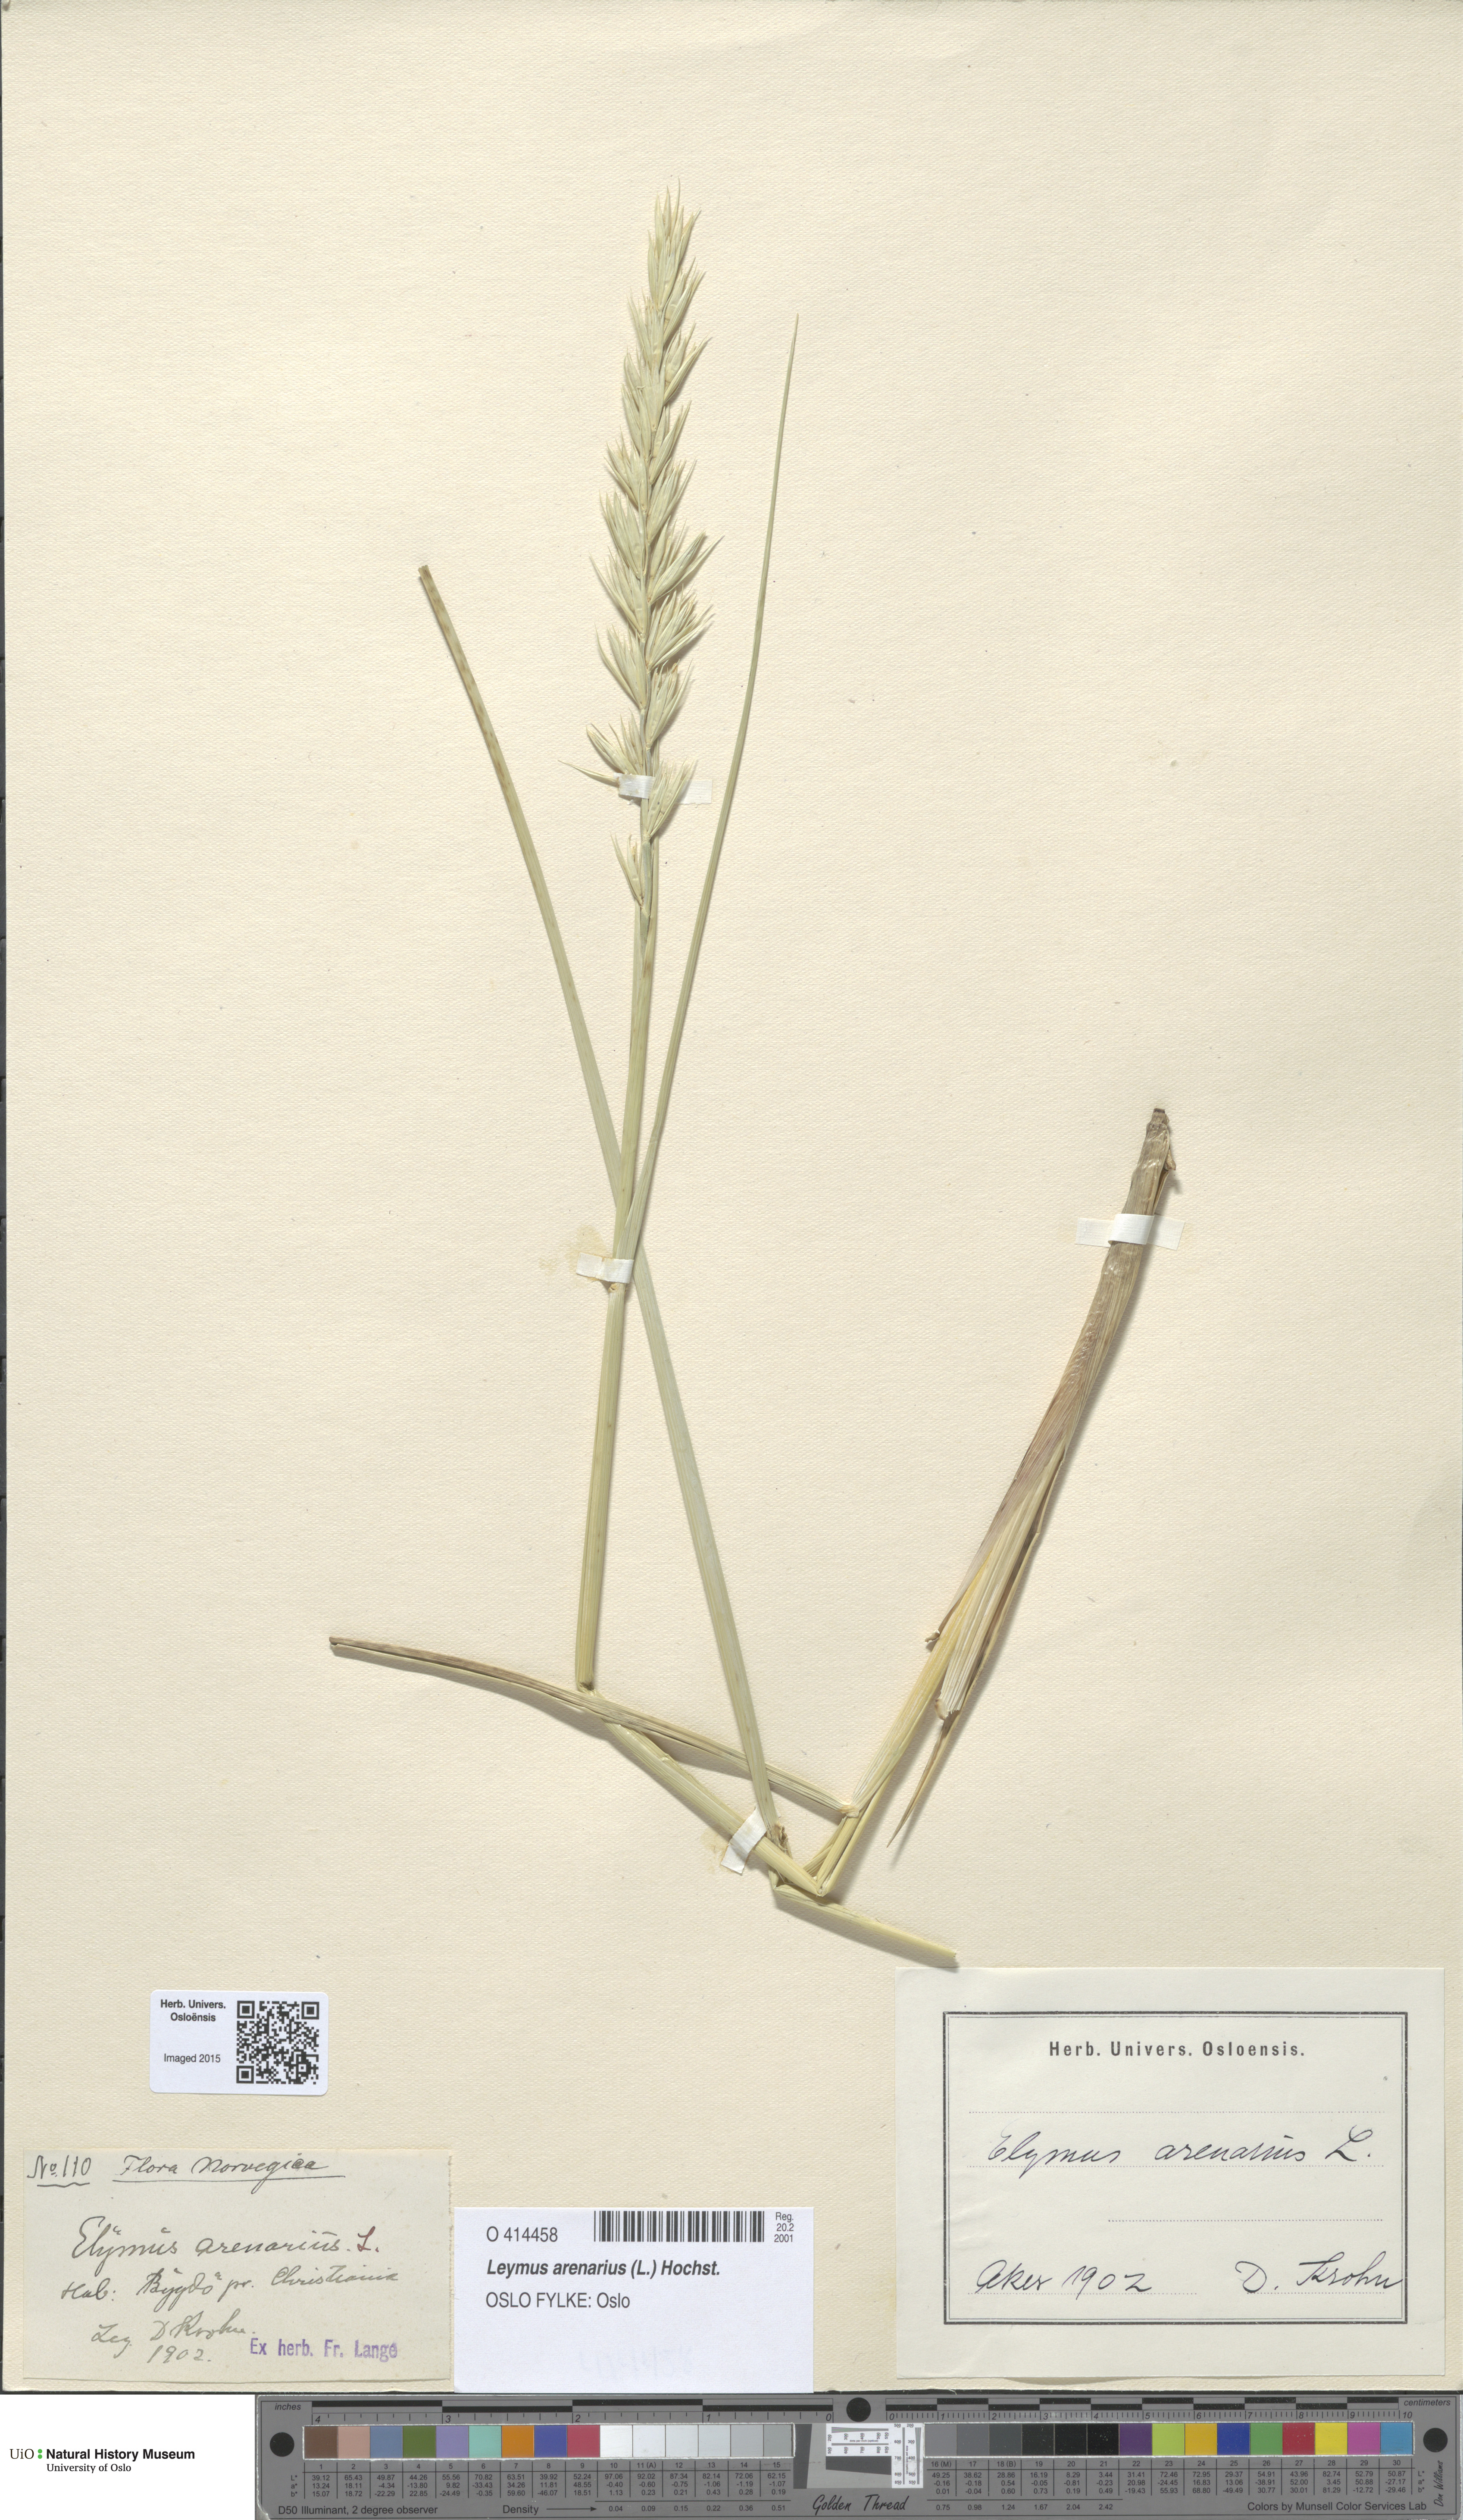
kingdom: Plantae
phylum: Tracheophyta
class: Liliopsida
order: Poales
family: Poaceae
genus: Leymus
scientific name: Leymus arenarius
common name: Lyme-grass
